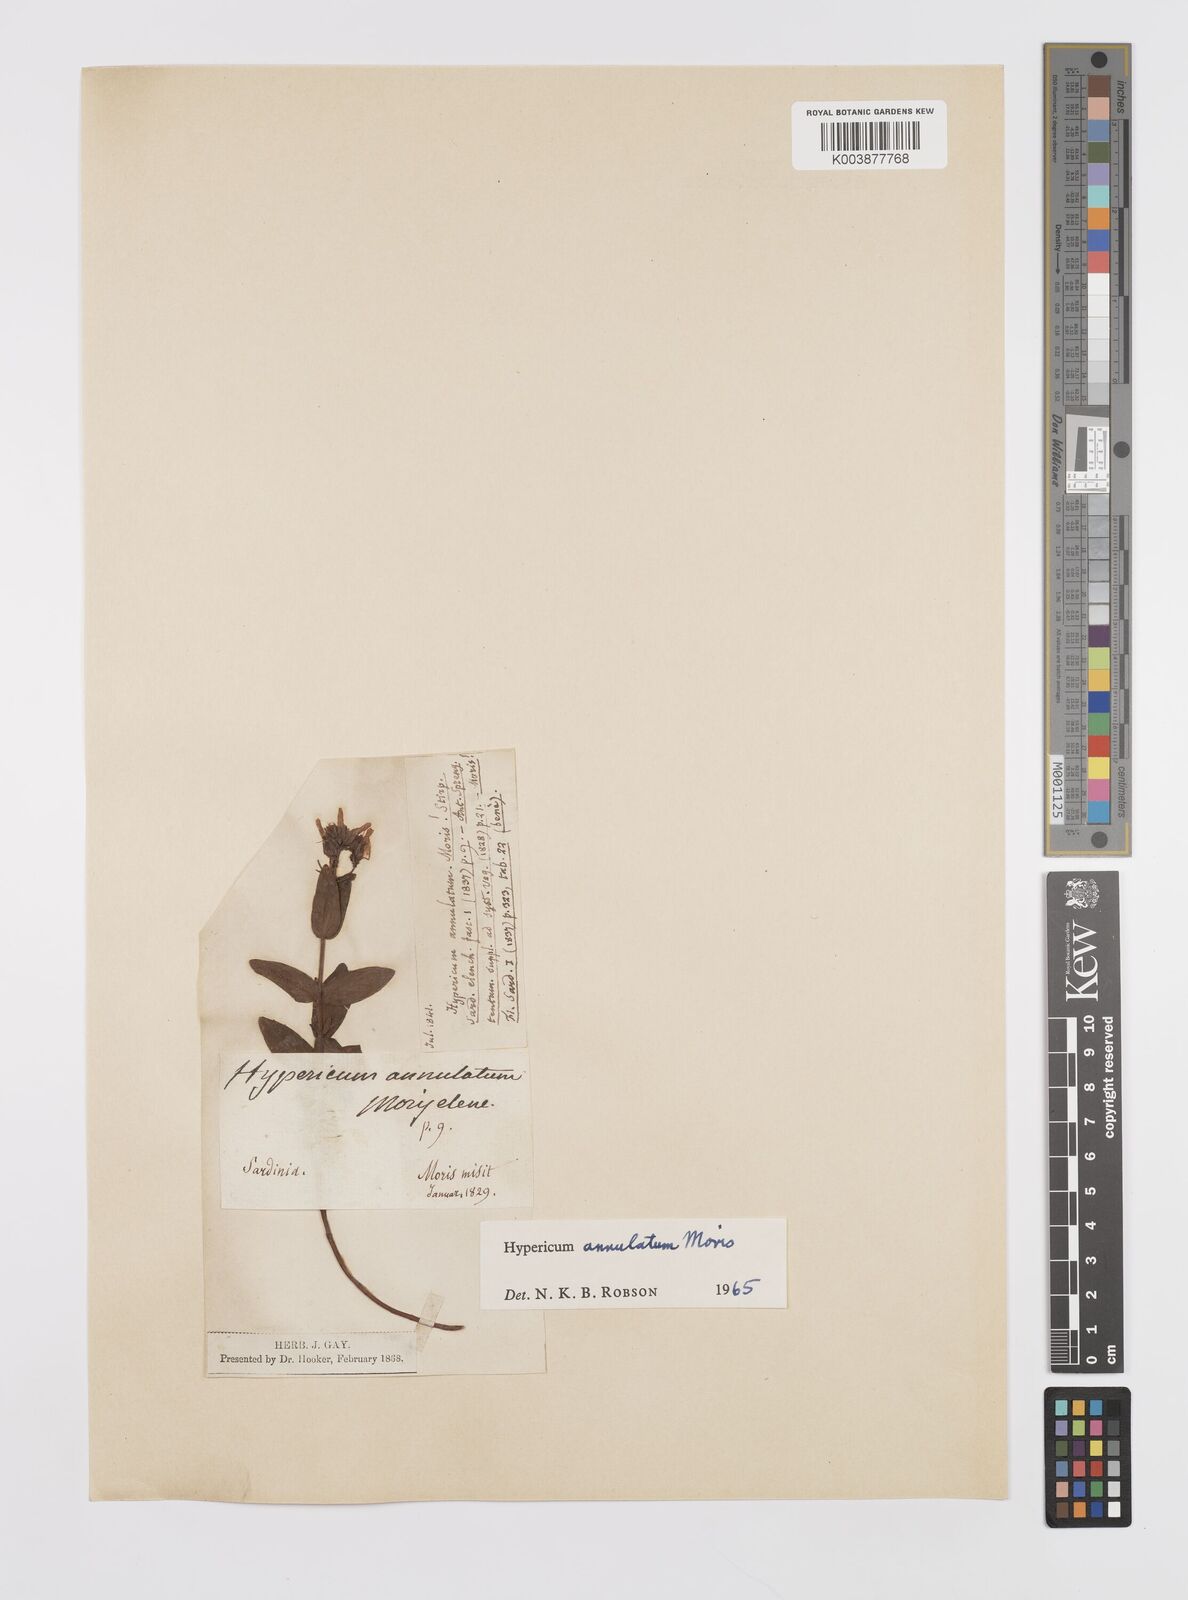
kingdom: Plantae
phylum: Tracheophyta
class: Magnoliopsida
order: Malpighiales
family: Hypericaceae
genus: Hypericum
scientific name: Hypericum annulatum
